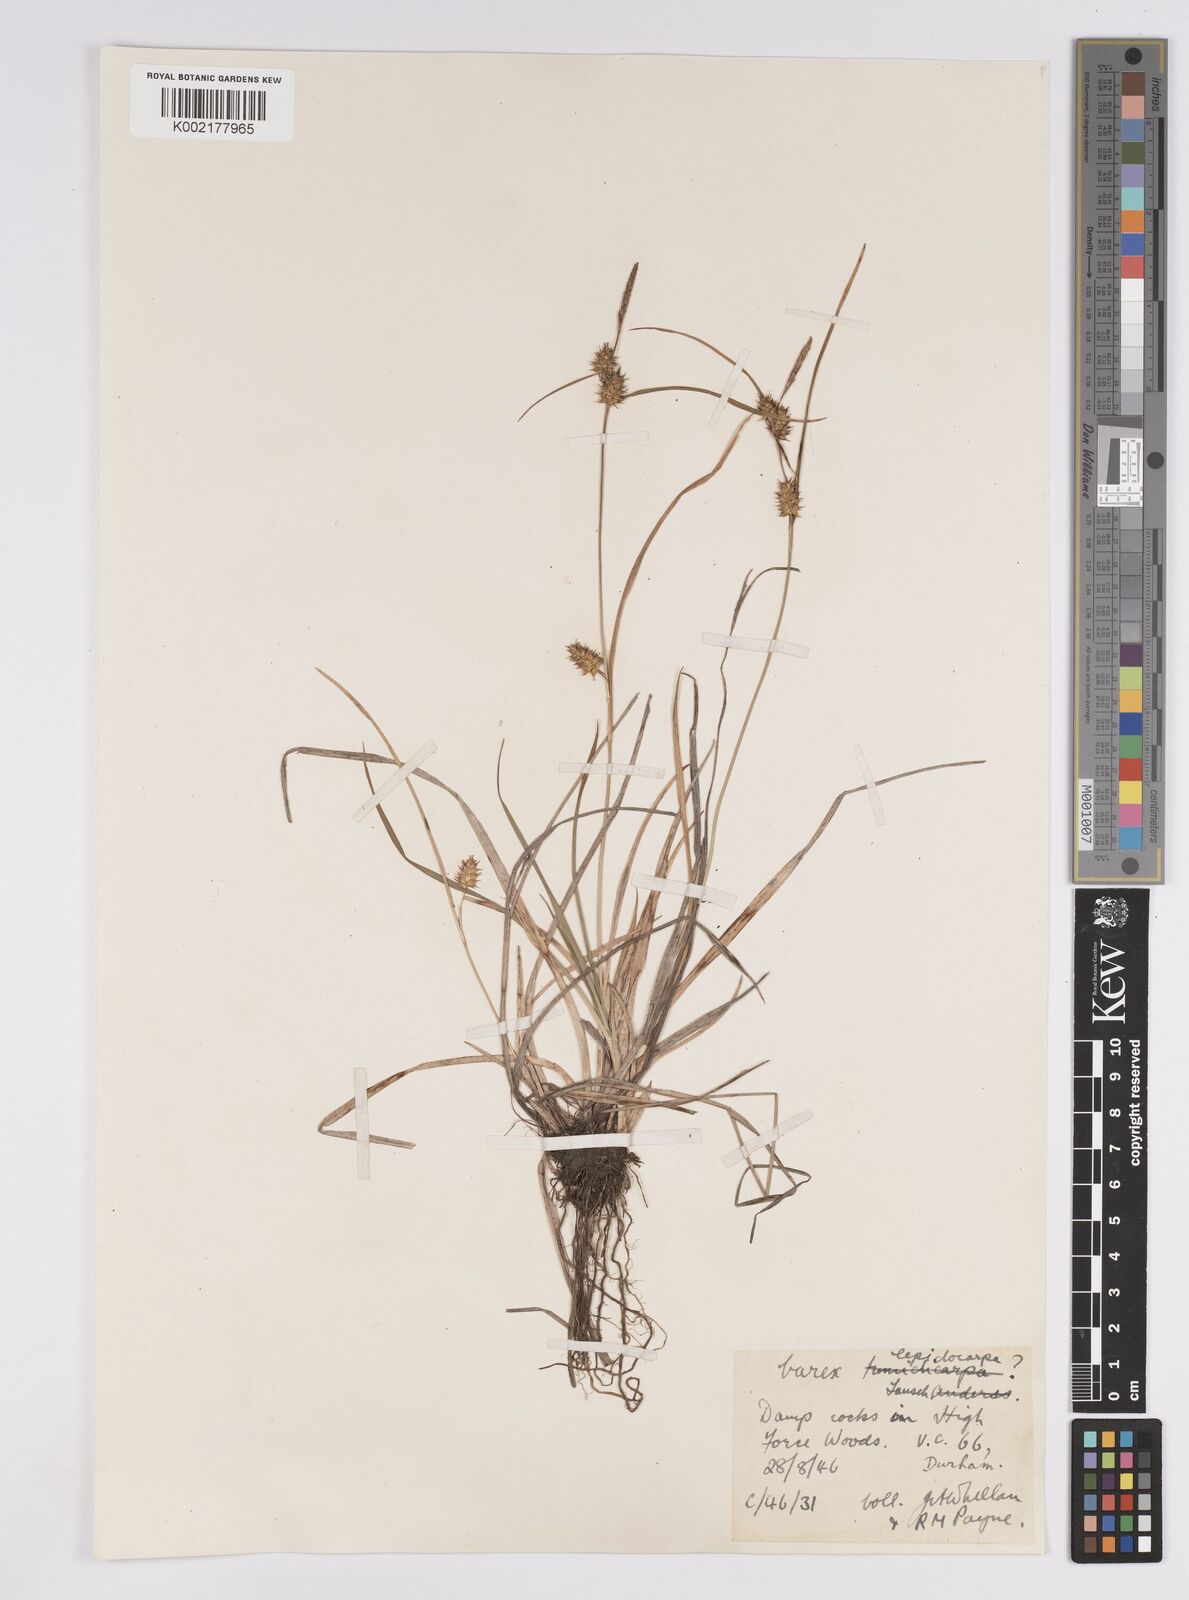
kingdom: Plantae
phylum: Tracheophyta
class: Liliopsida
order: Poales
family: Cyperaceae
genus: Carex
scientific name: Carex demissa
